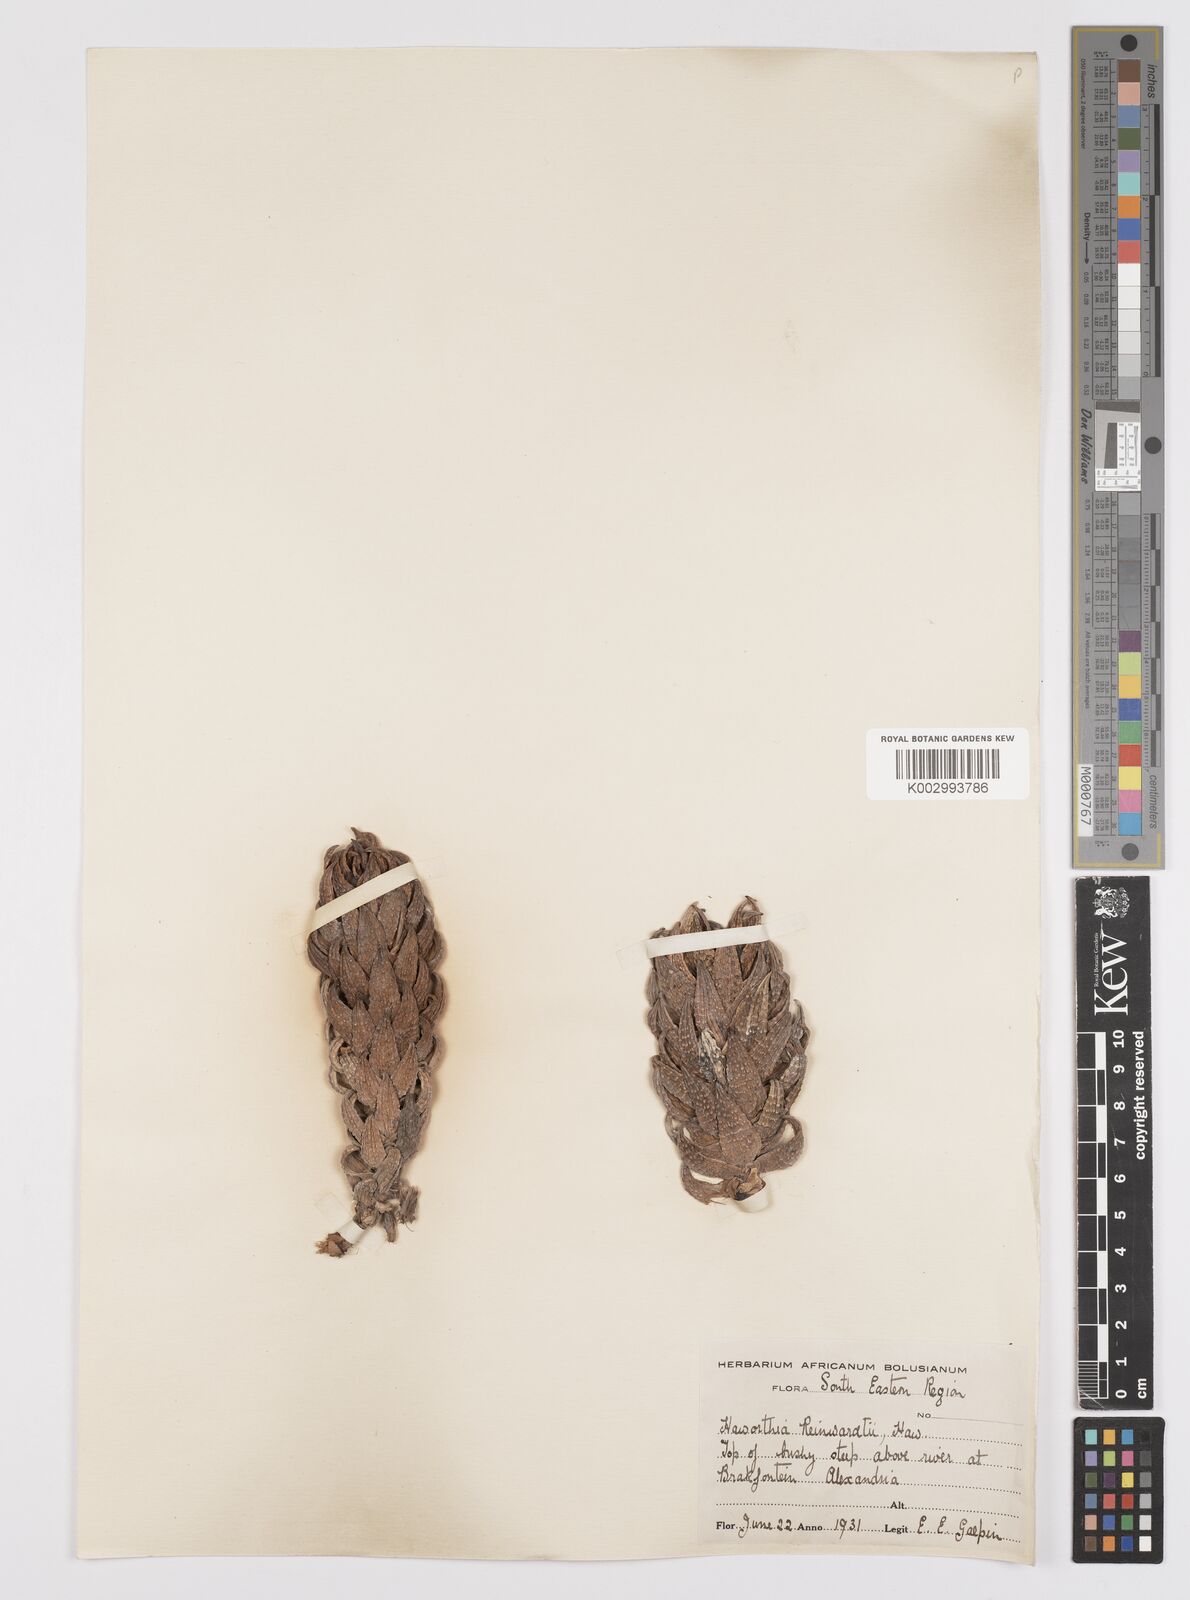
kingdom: Plantae
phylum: Tracheophyta
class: Liliopsida
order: Asparagales
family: Asphodelaceae
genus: Haworthiopsis
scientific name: Haworthiopsis reinwardtii
